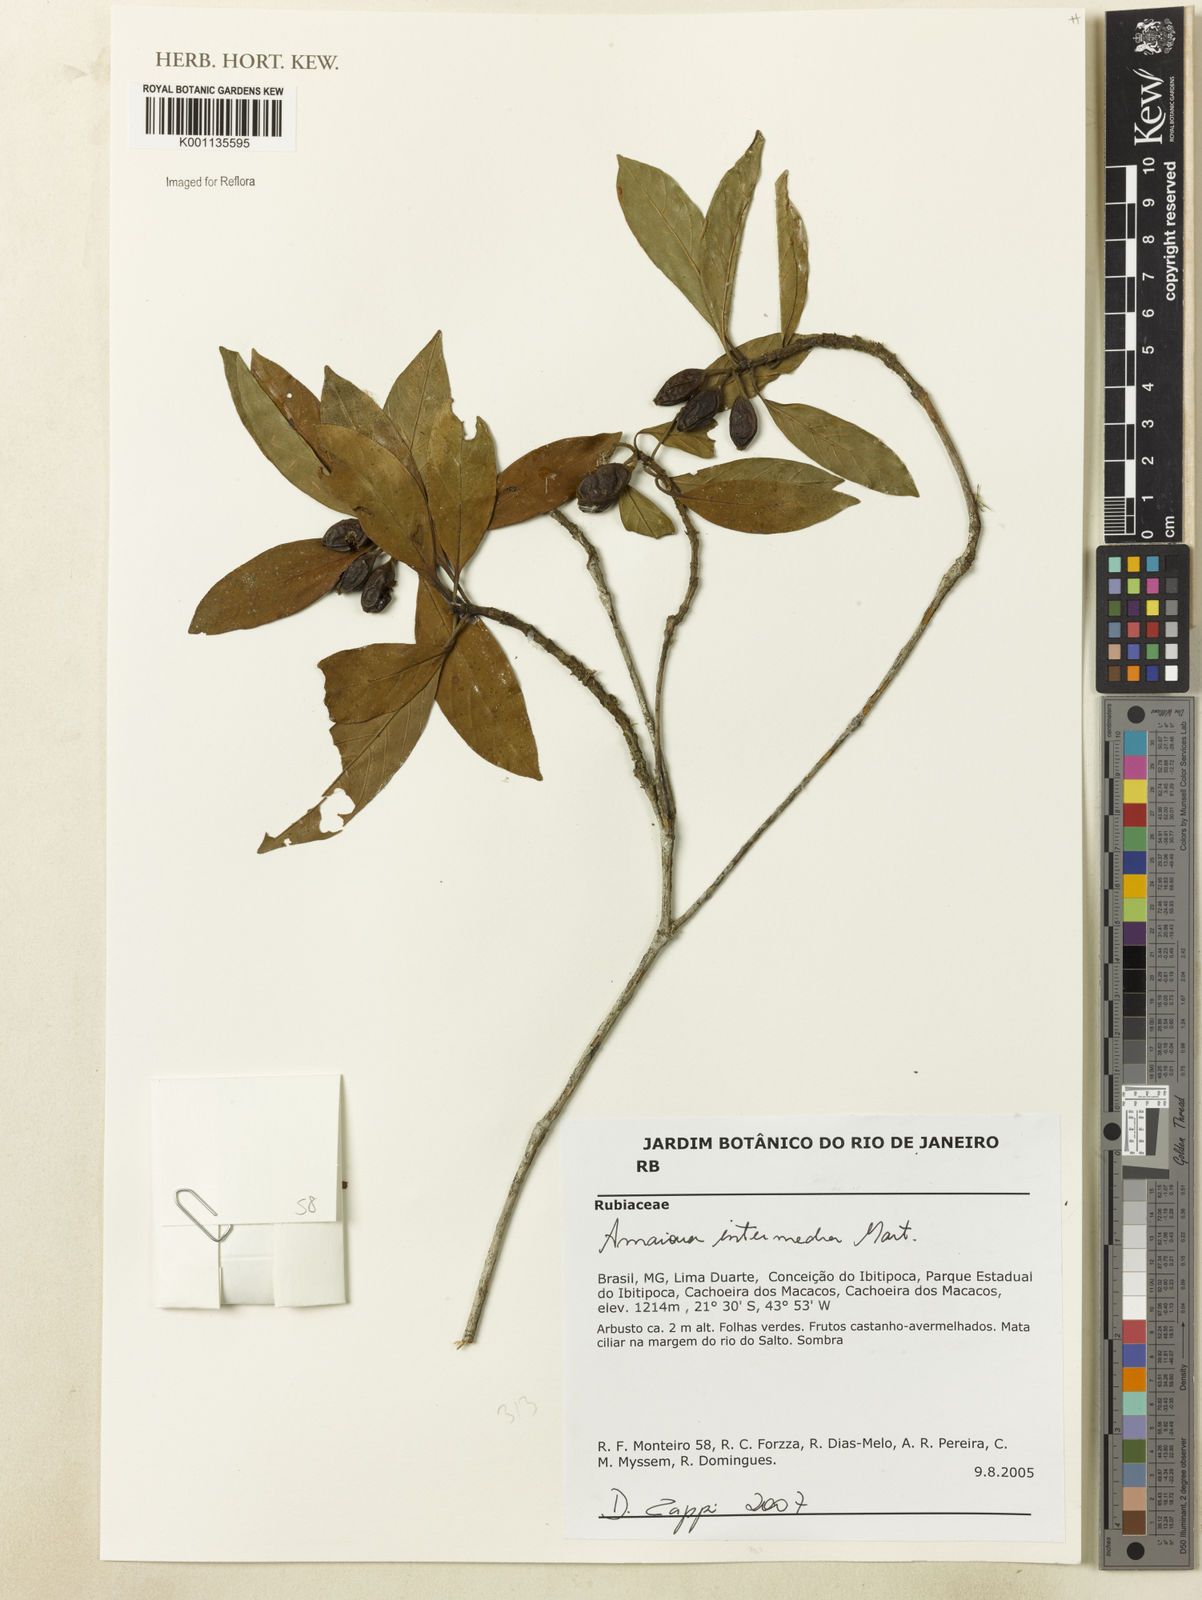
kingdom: Plantae
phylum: Tracheophyta
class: Magnoliopsida
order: Gentianales
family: Rubiaceae
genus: Amaioua
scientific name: Amaioua intermedia
